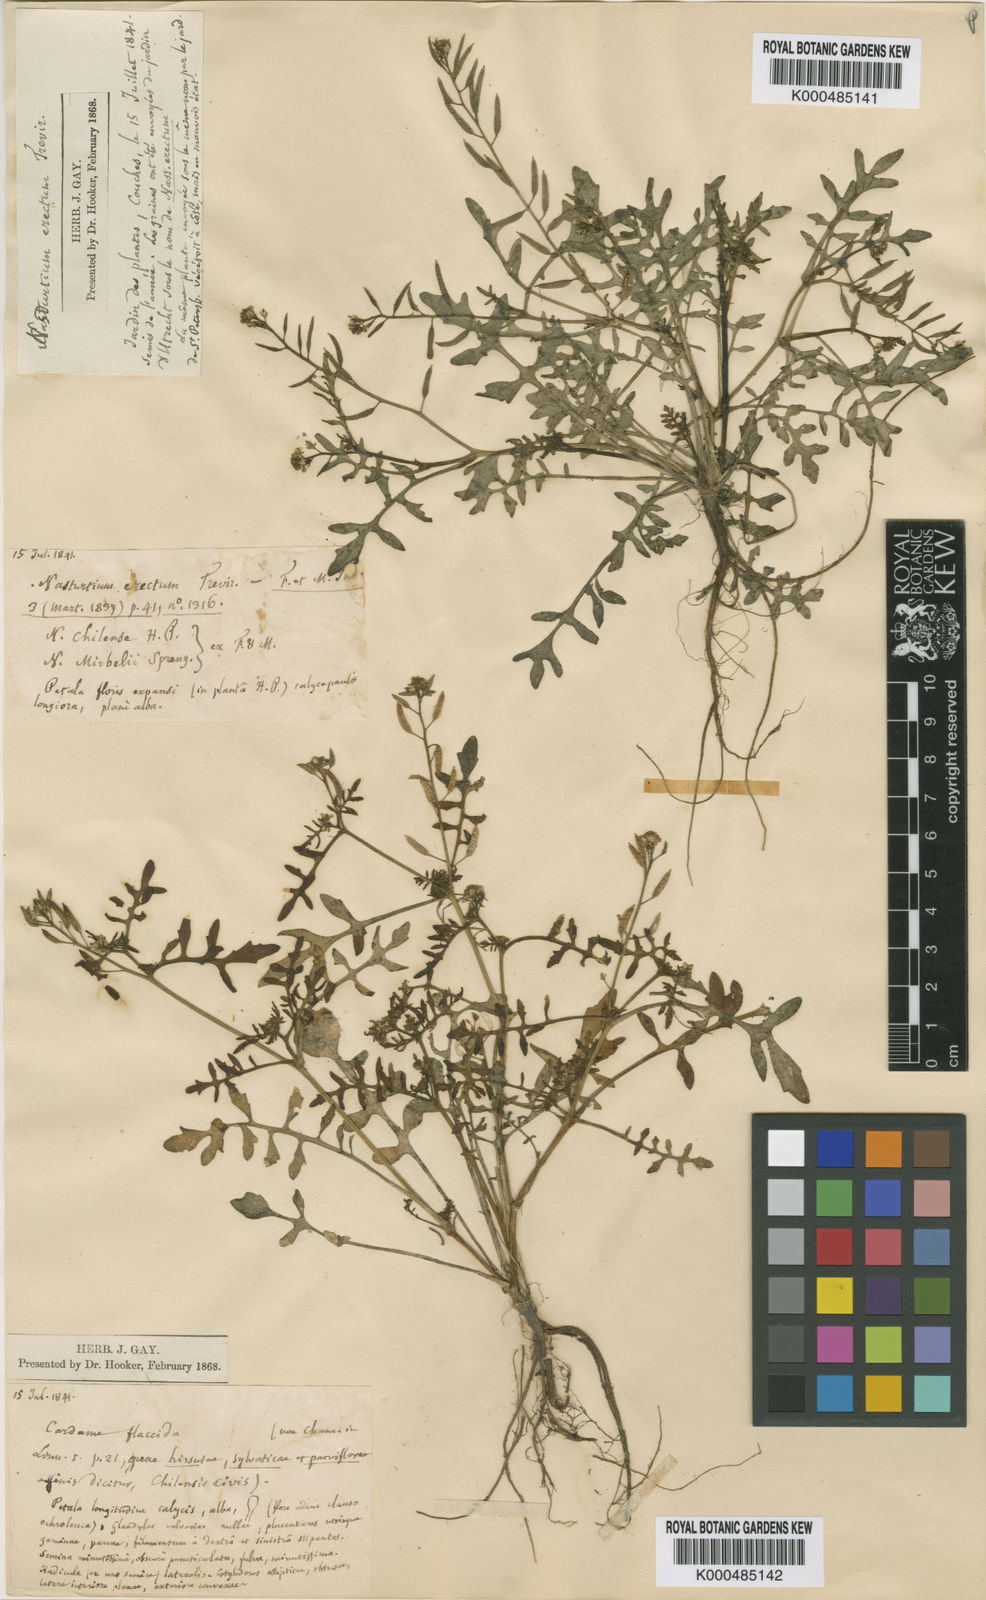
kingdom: Plantae
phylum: Tracheophyta
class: Magnoliopsida
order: Brassicales
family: Brassicaceae
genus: Rorippa
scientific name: Rorippa
